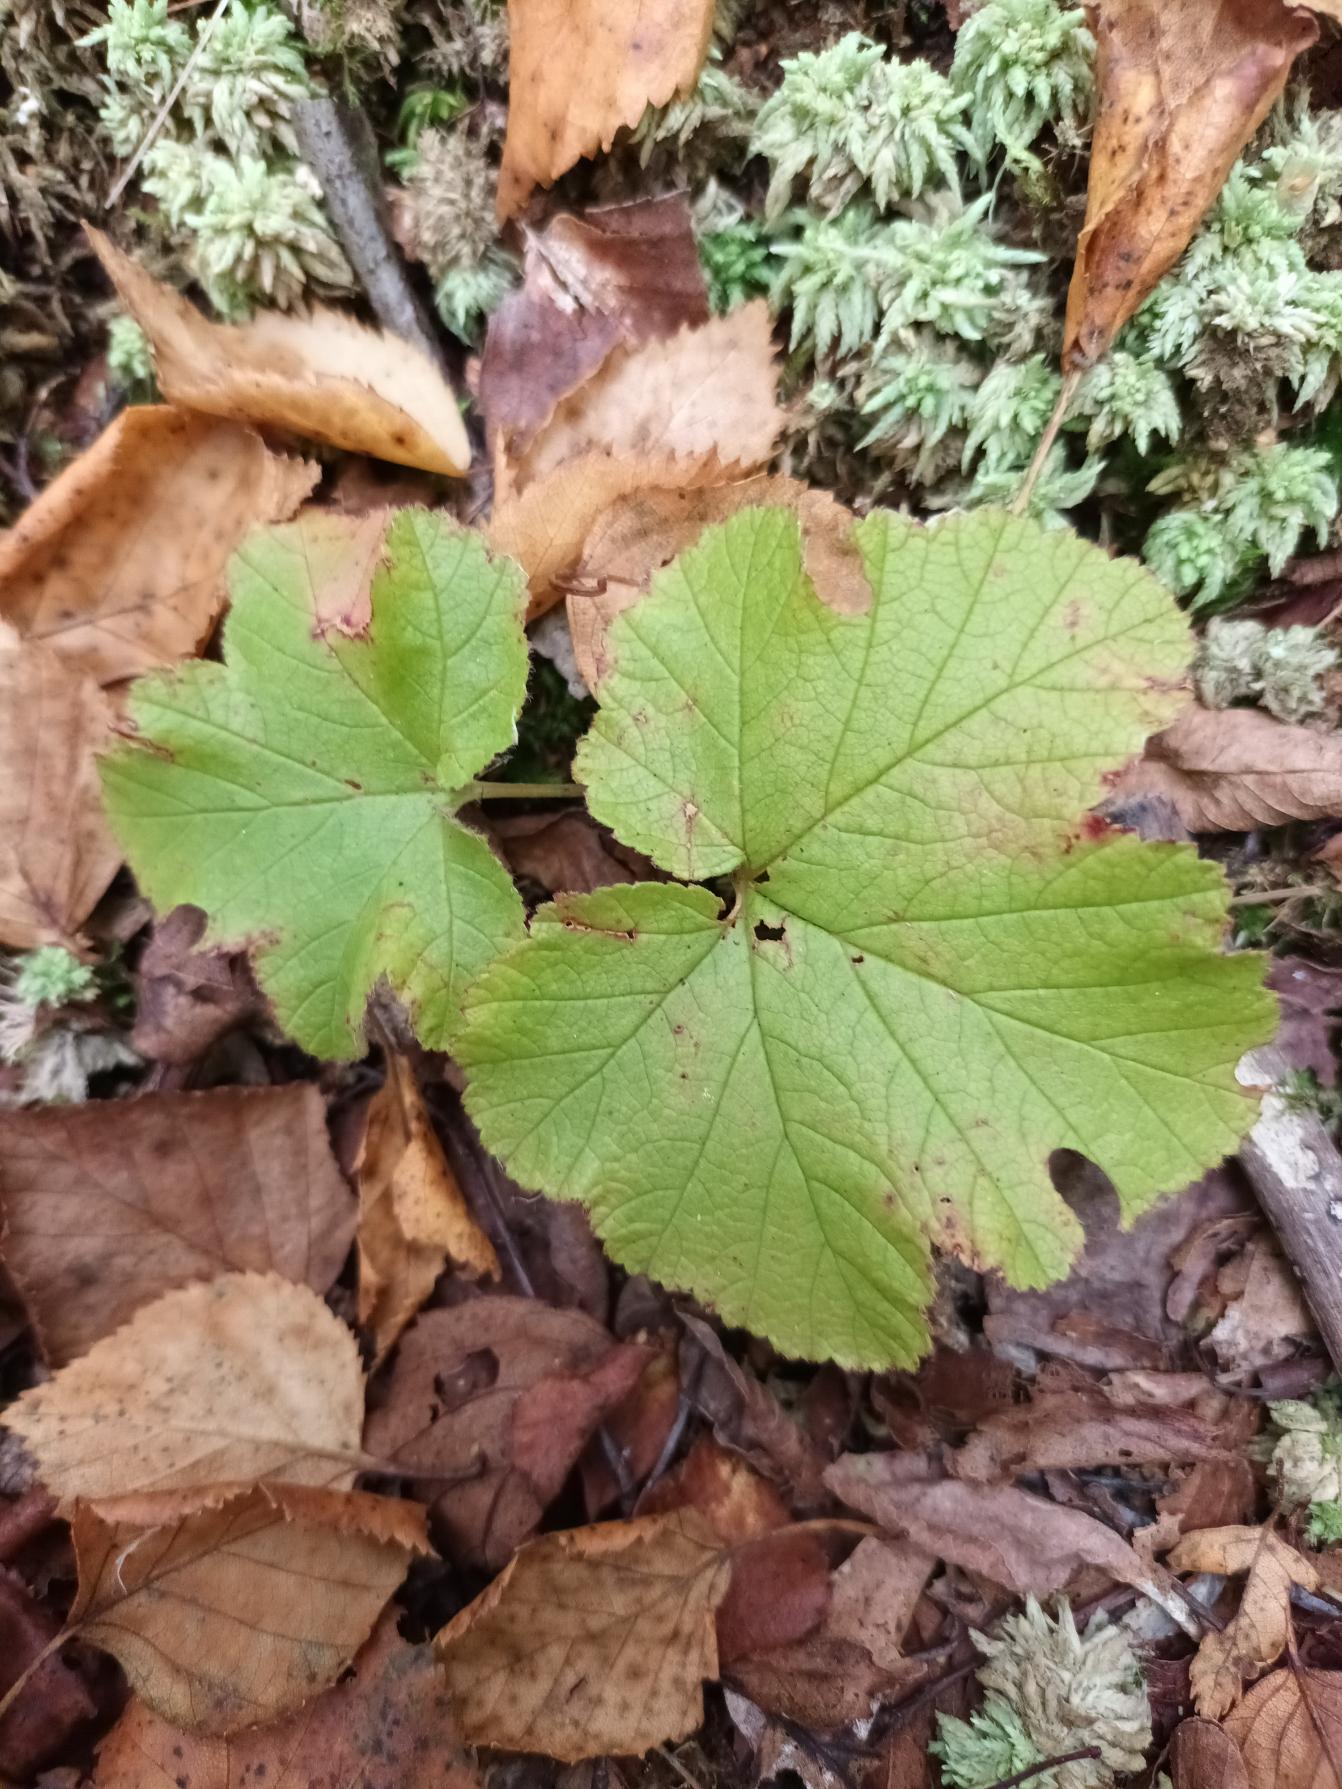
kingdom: Plantae
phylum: Tracheophyta
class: Magnoliopsida
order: Rosales
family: Rosaceae
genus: Rubus
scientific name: Rubus chamaemorus
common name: Multebær
